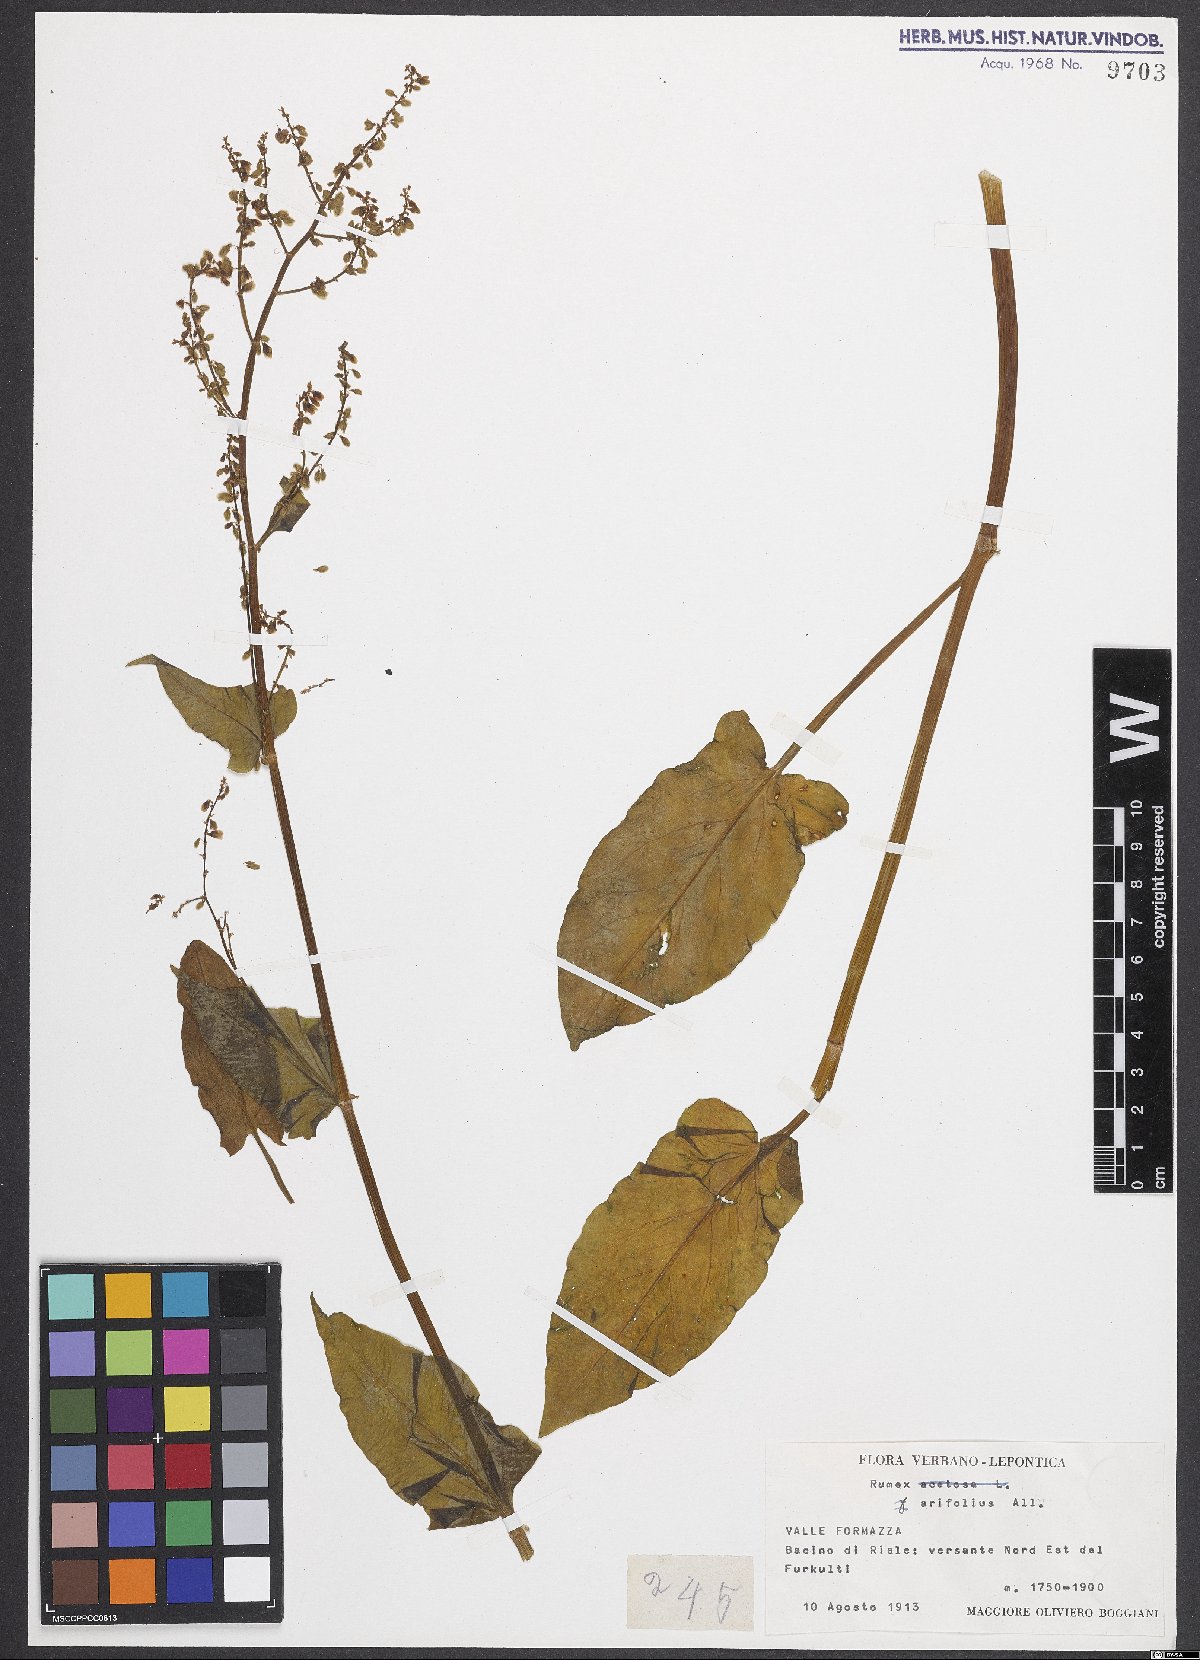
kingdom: Plantae
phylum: Tracheophyta
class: Magnoliopsida
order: Caryophyllales
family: Polygonaceae
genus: Rumex
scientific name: Rumex arifolius
